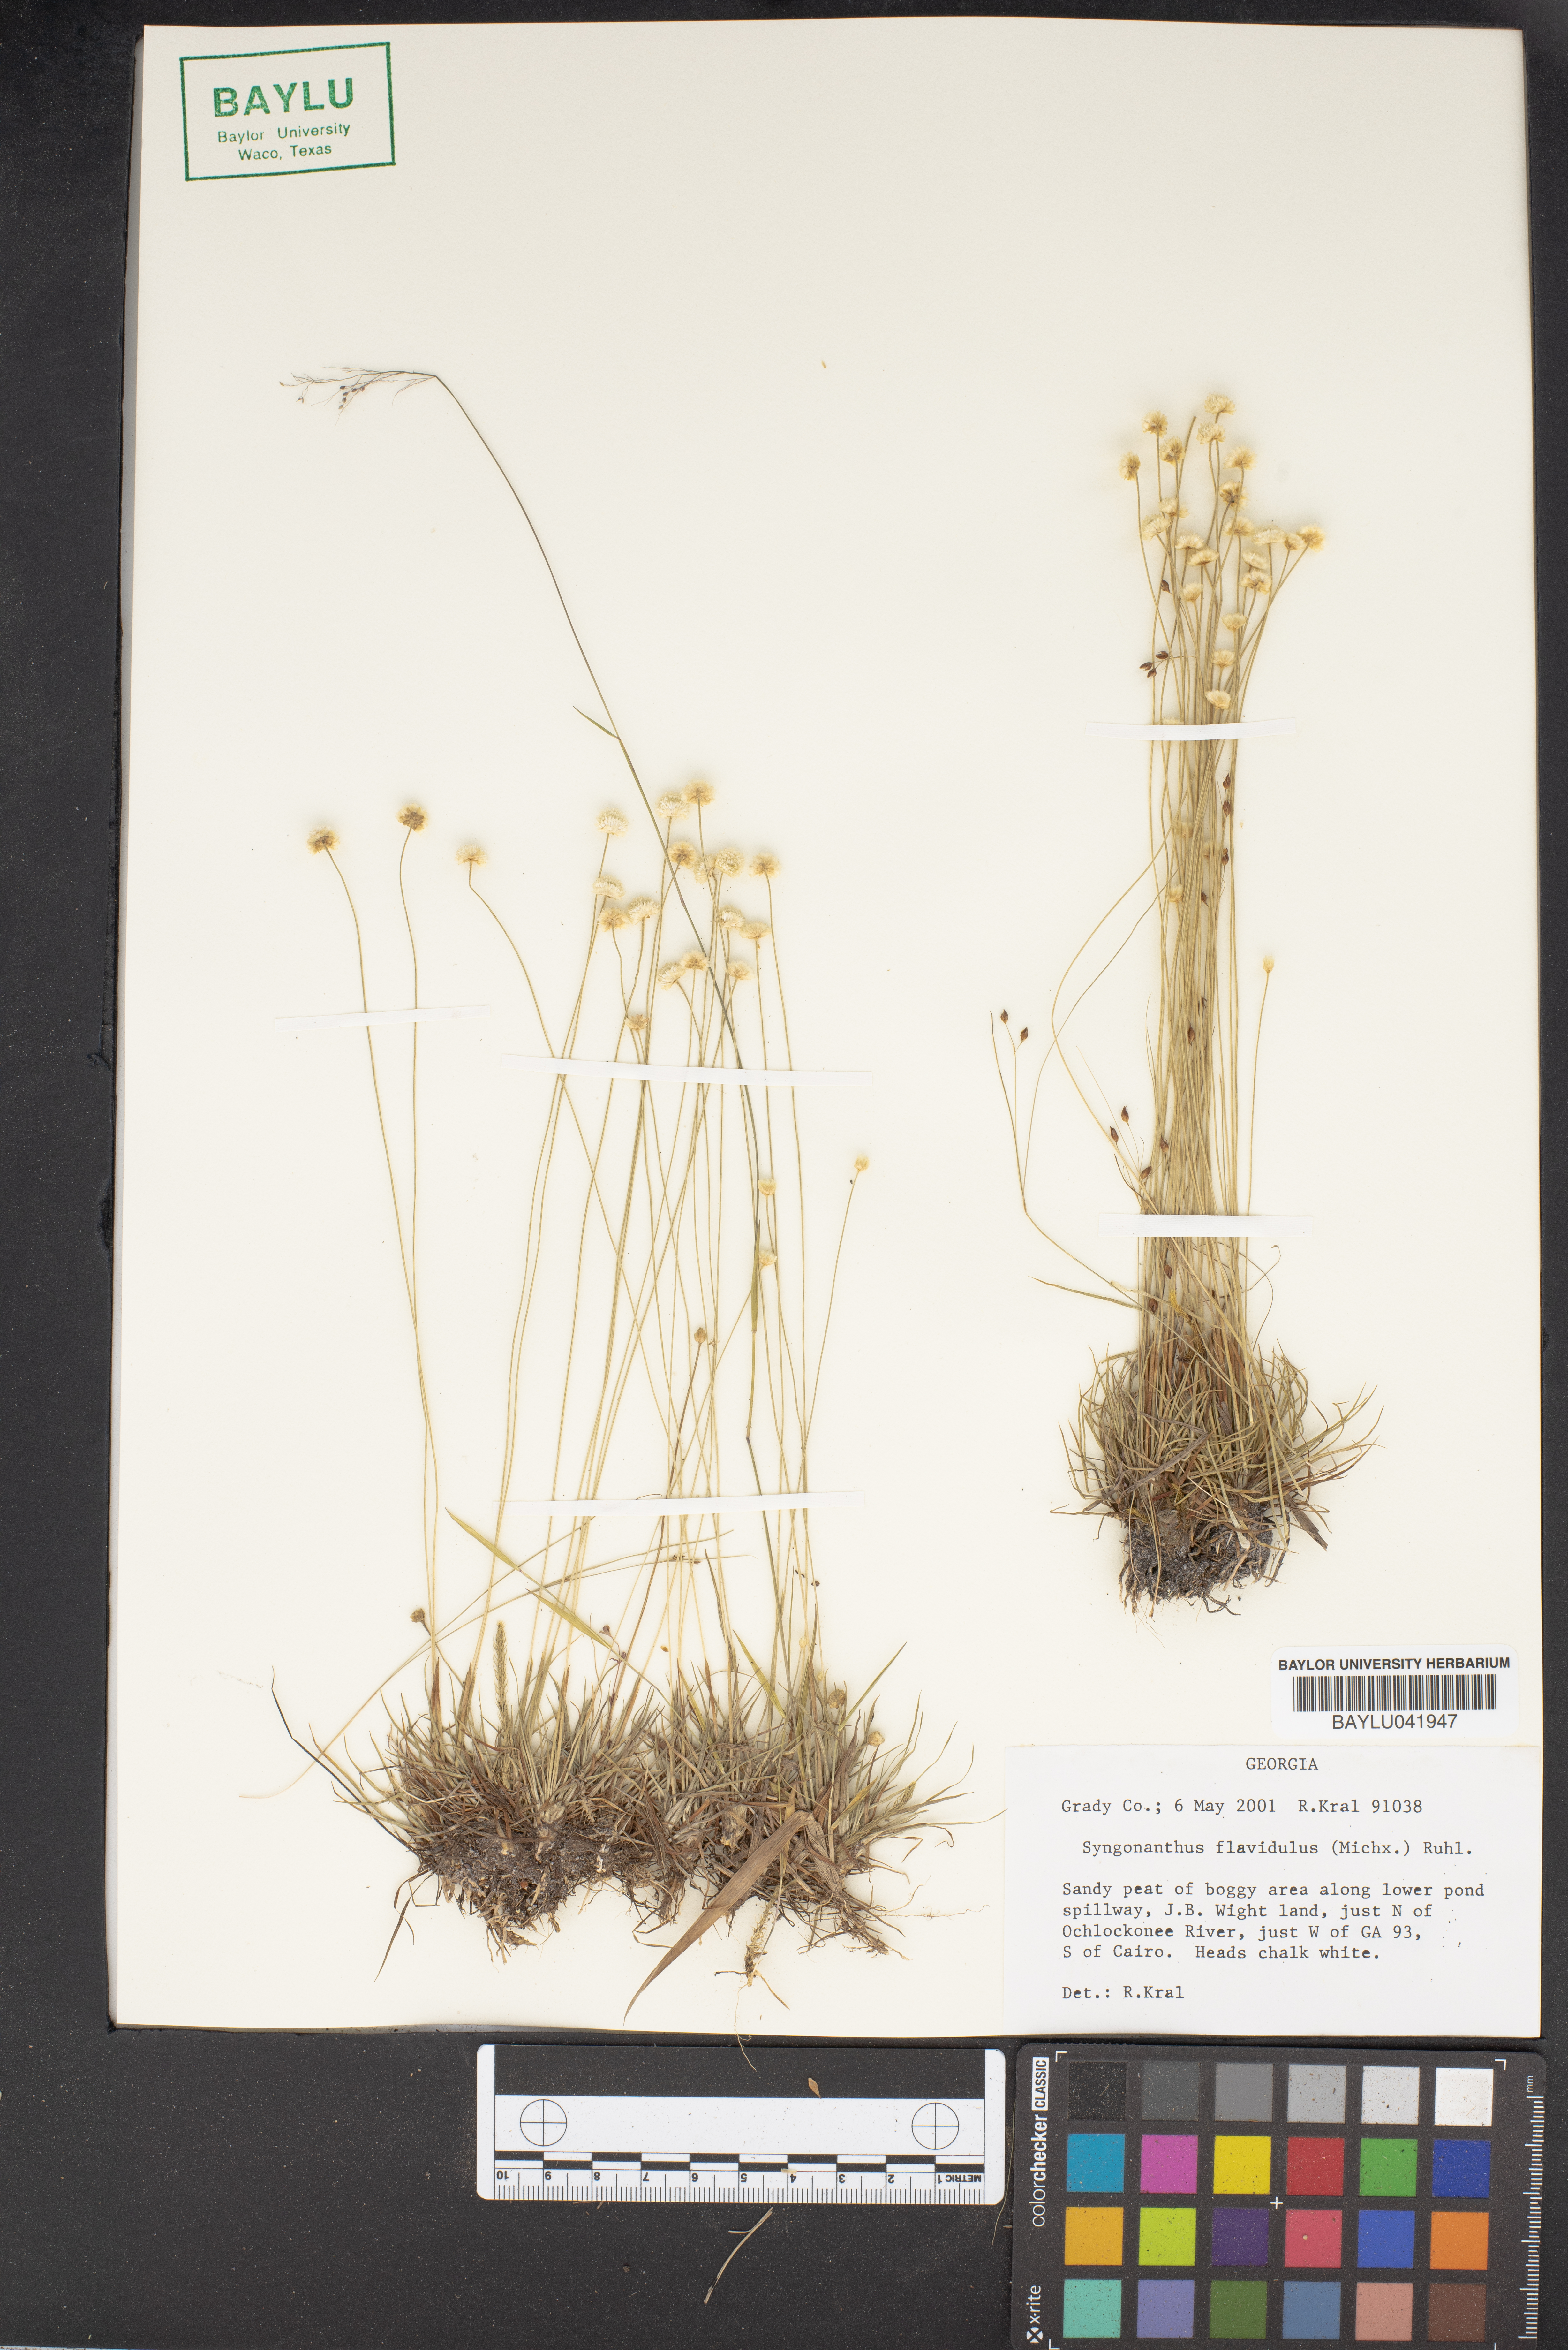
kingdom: Plantae
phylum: Tracheophyta
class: Liliopsida
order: Poales
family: Eriocaulaceae
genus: Syngonanthus
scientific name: Syngonanthus flavidulus
